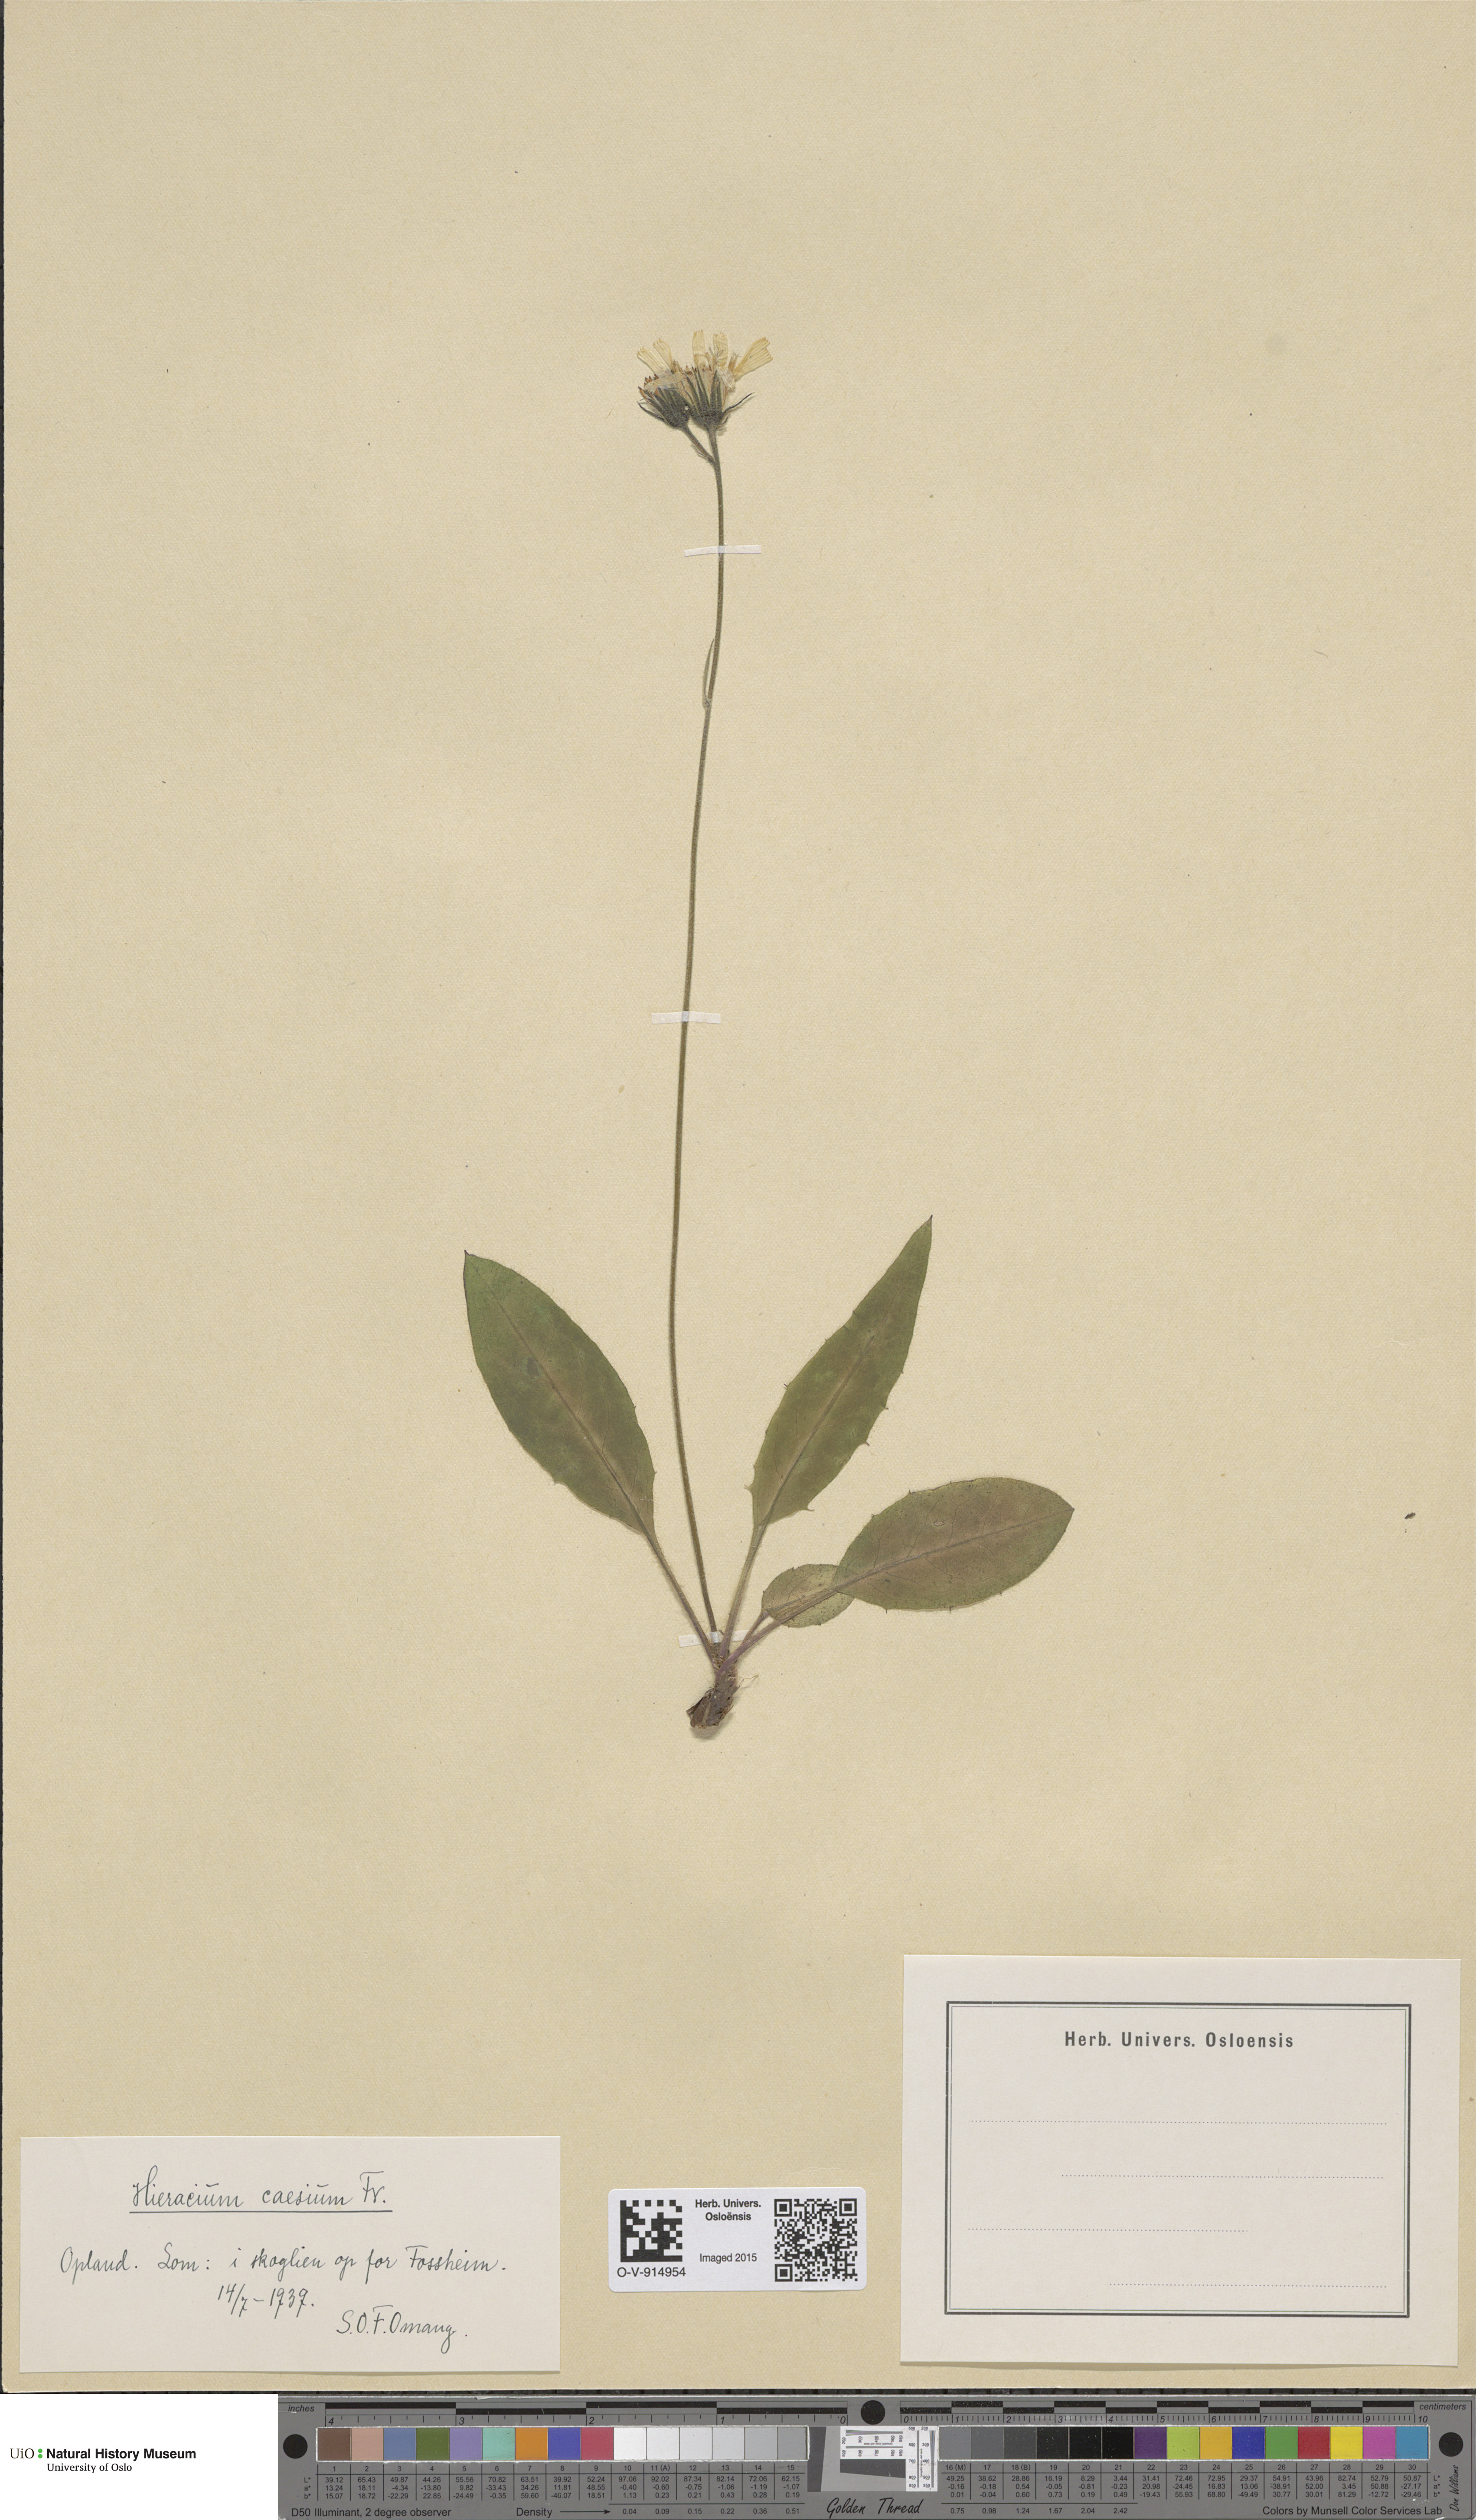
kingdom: Plantae
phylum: Tracheophyta
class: Magnoliopsida
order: Asterales
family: Asteraceae
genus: Hieracium
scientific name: Hieracium caesium
